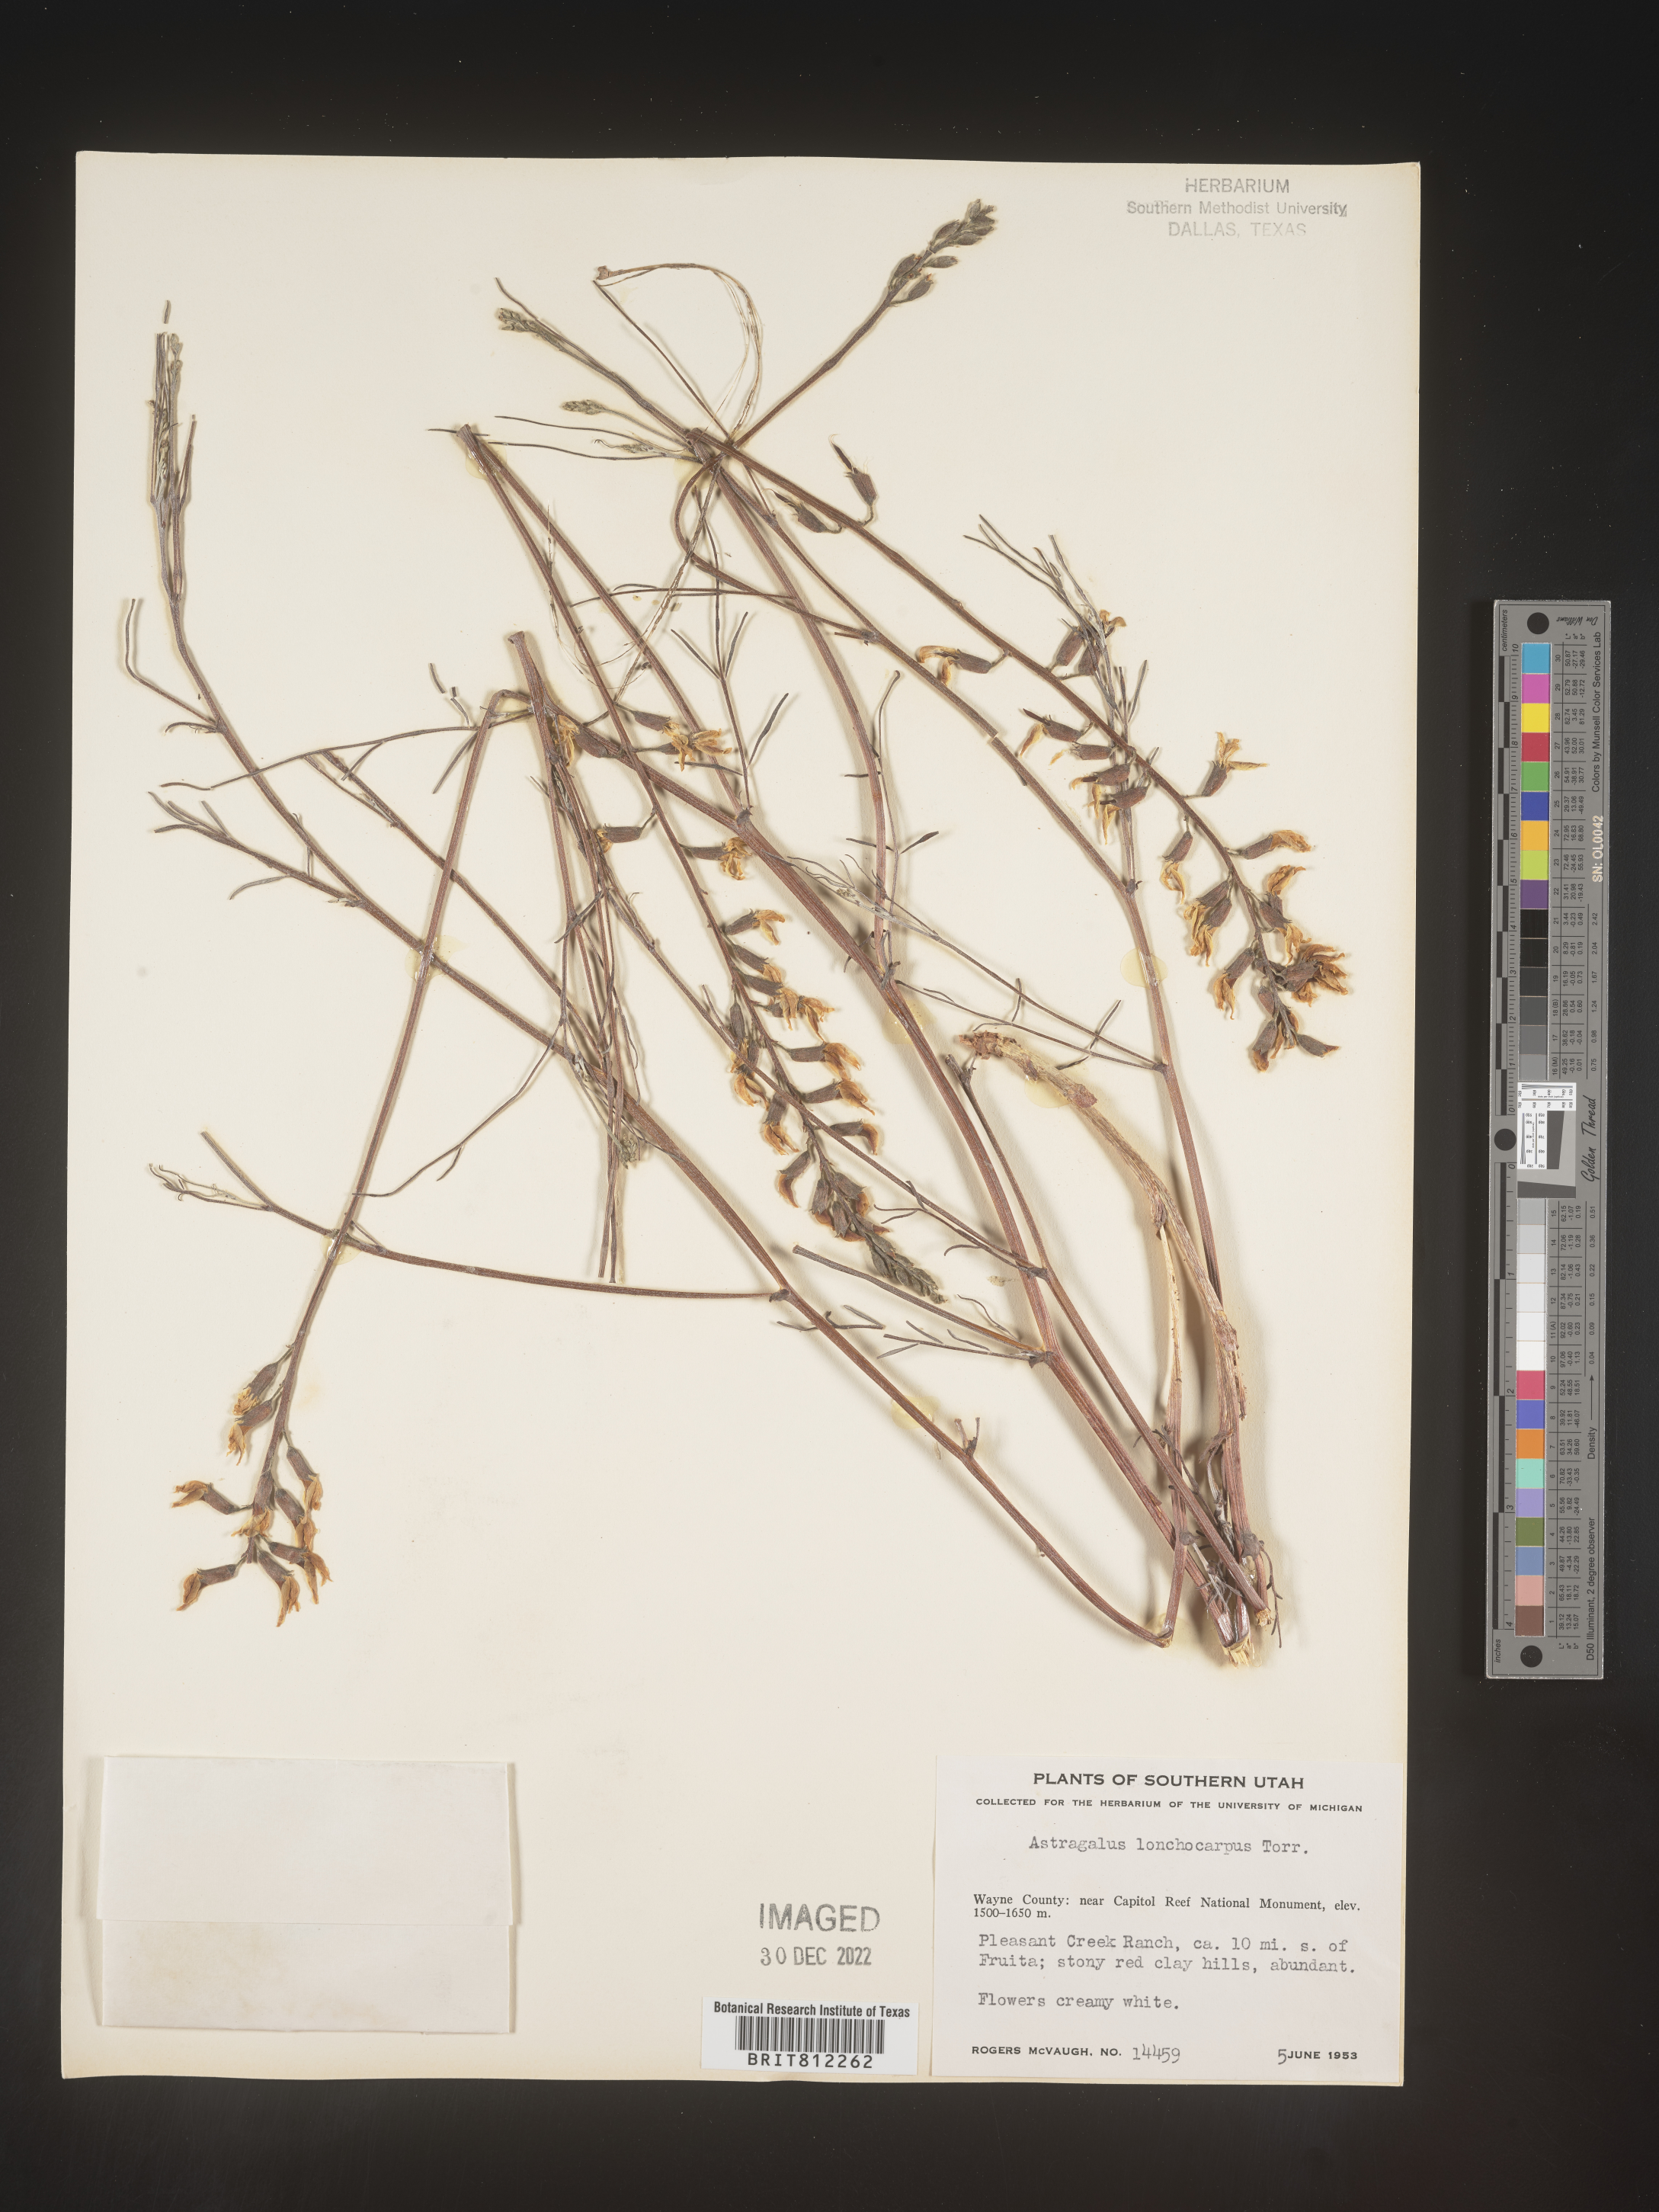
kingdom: Plantae
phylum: Tracheophyta
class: Magnoliopsida
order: Fabales
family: Fabaceae
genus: Astragalus
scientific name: Astragalus lonchocarpus
